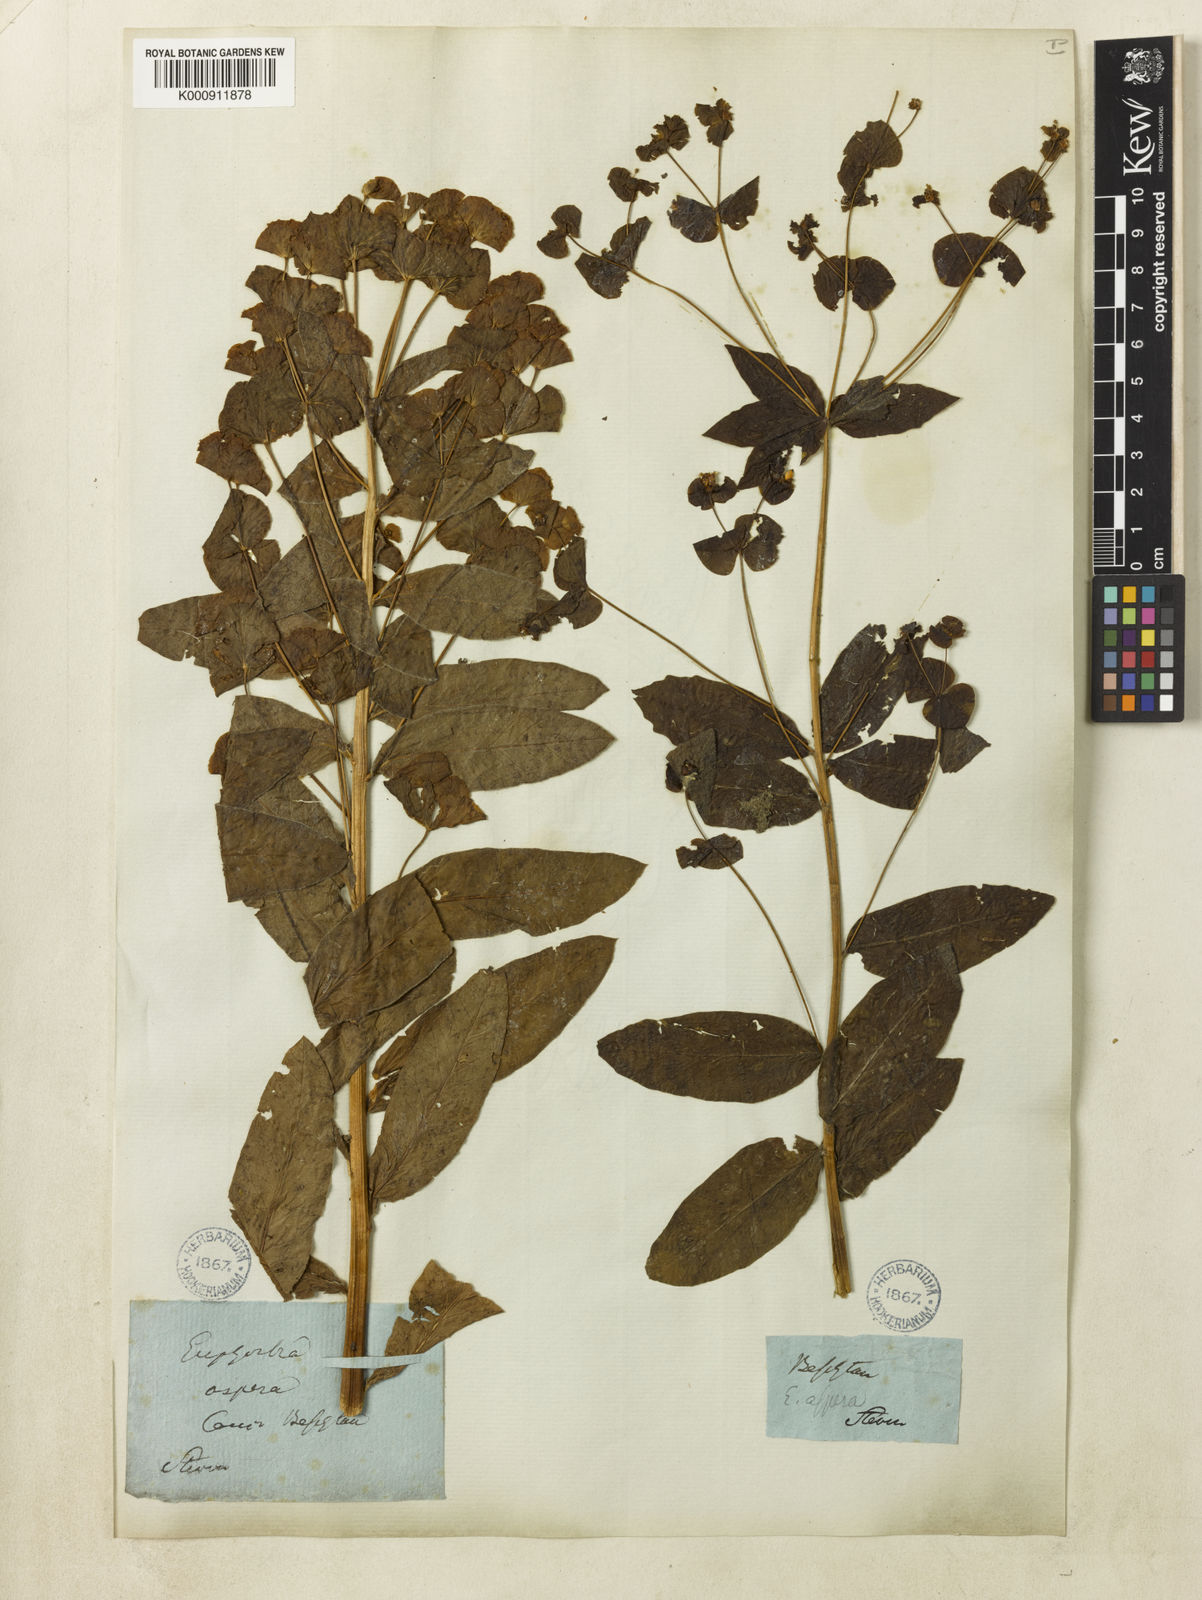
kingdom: Plantae
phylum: Tracheophyta
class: Magnoliopsida
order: Malpighiales
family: Euphorbiaceae
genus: Euphorbia
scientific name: Euphorbia squamosa
